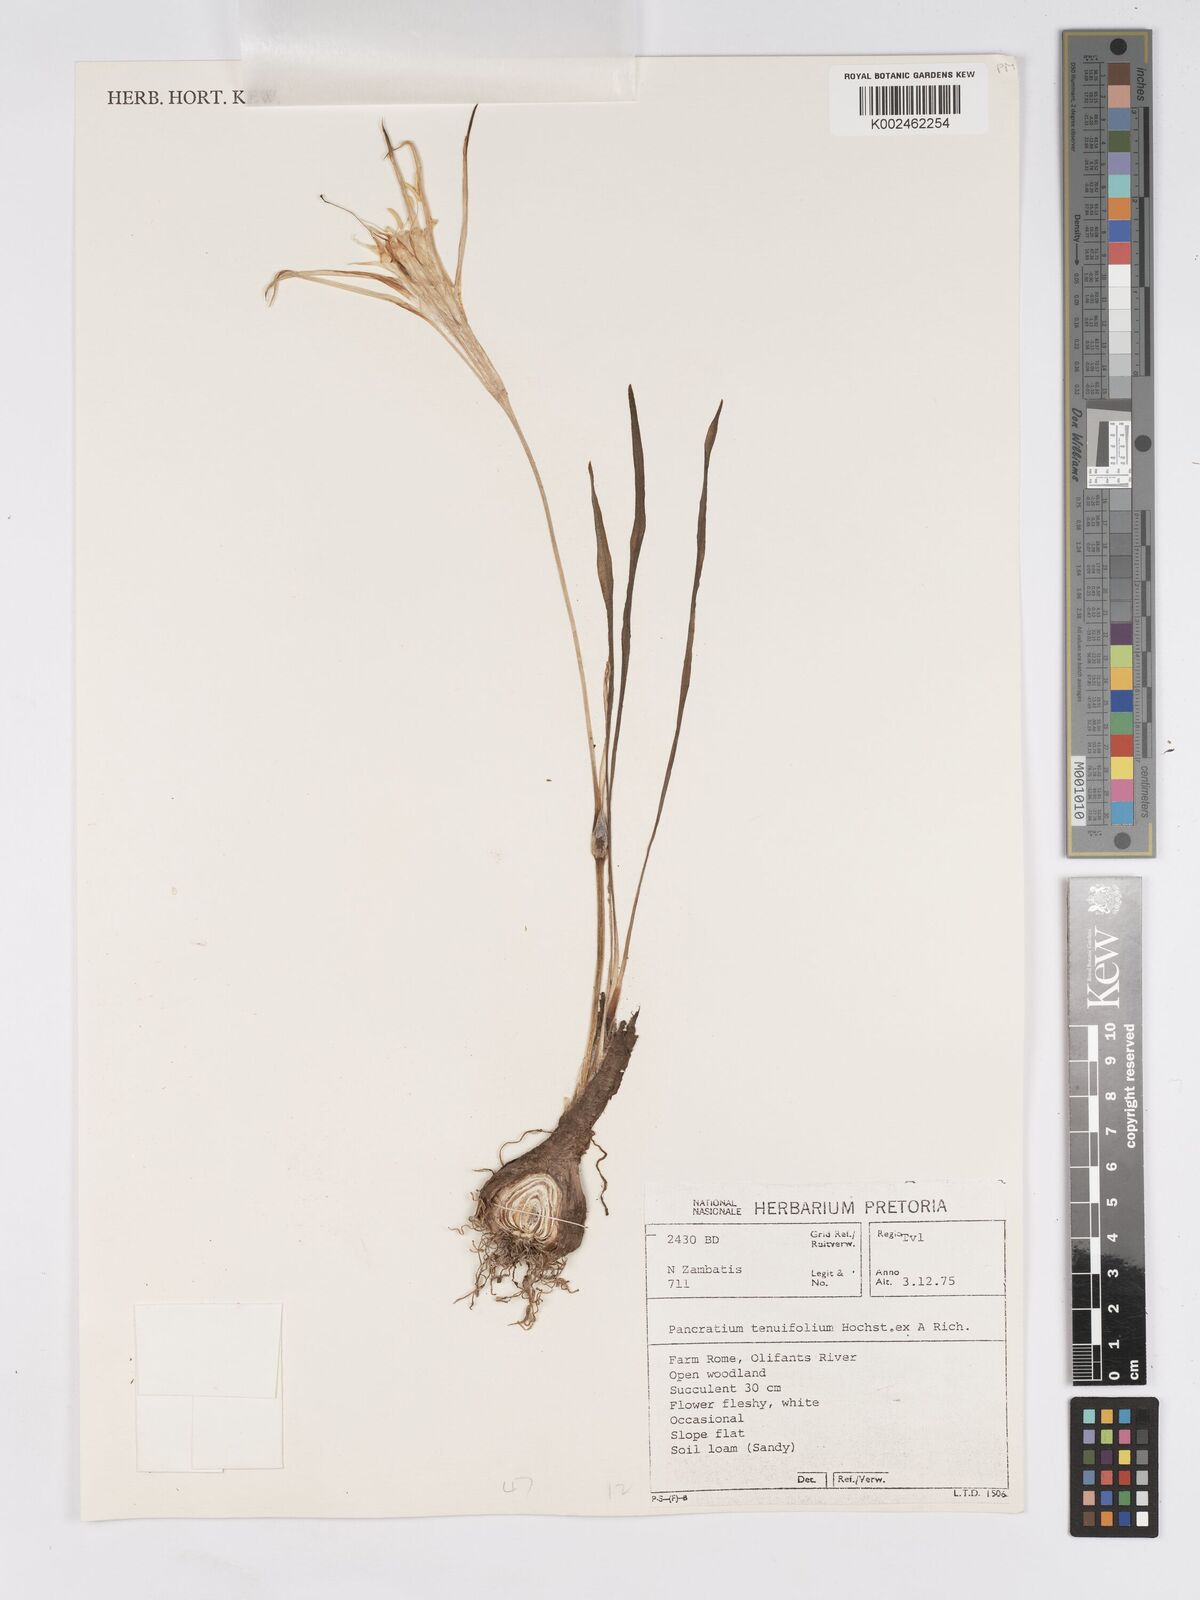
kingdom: Plantae
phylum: Tracheophyta
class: Liliopsida
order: Asparagales
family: Amaryllidaceae
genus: Pancratium
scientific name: Pancratium tenuifolium
